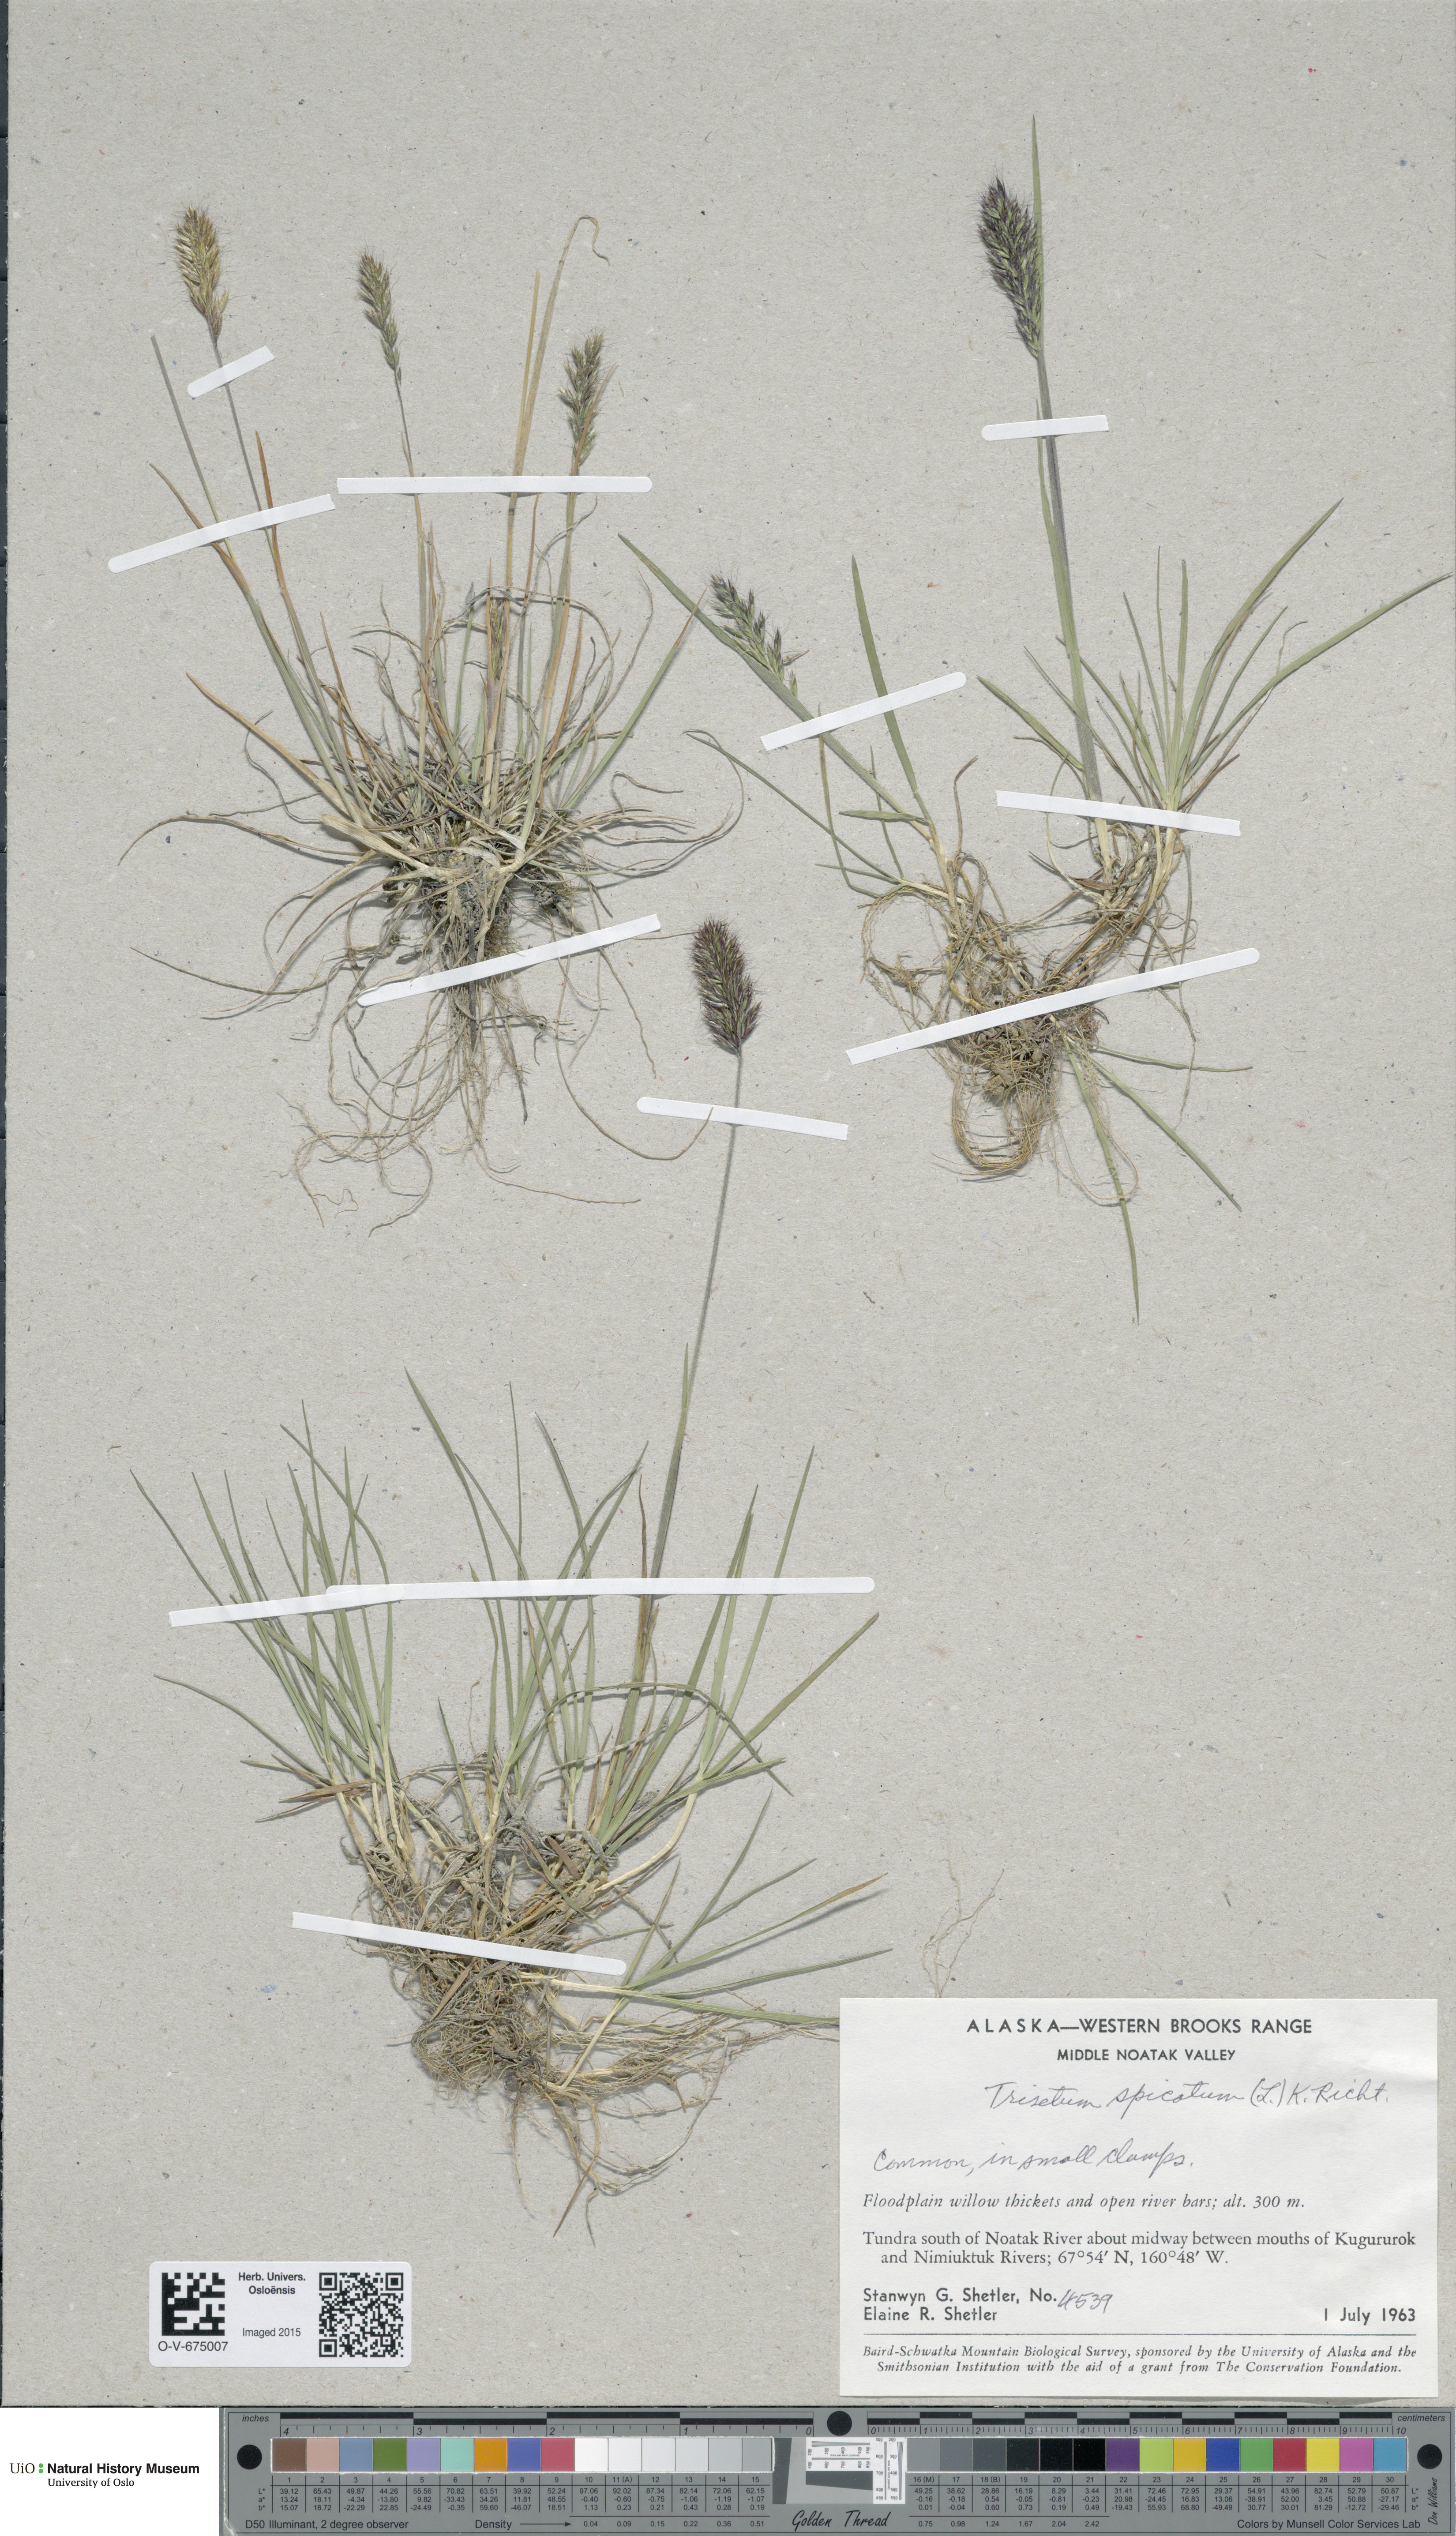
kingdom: Plantae
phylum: Tracheophyta
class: Liliopsida
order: Poales
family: Poaceae
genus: Koeleria
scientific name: Koeleria spicata
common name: Mountain trisetum
